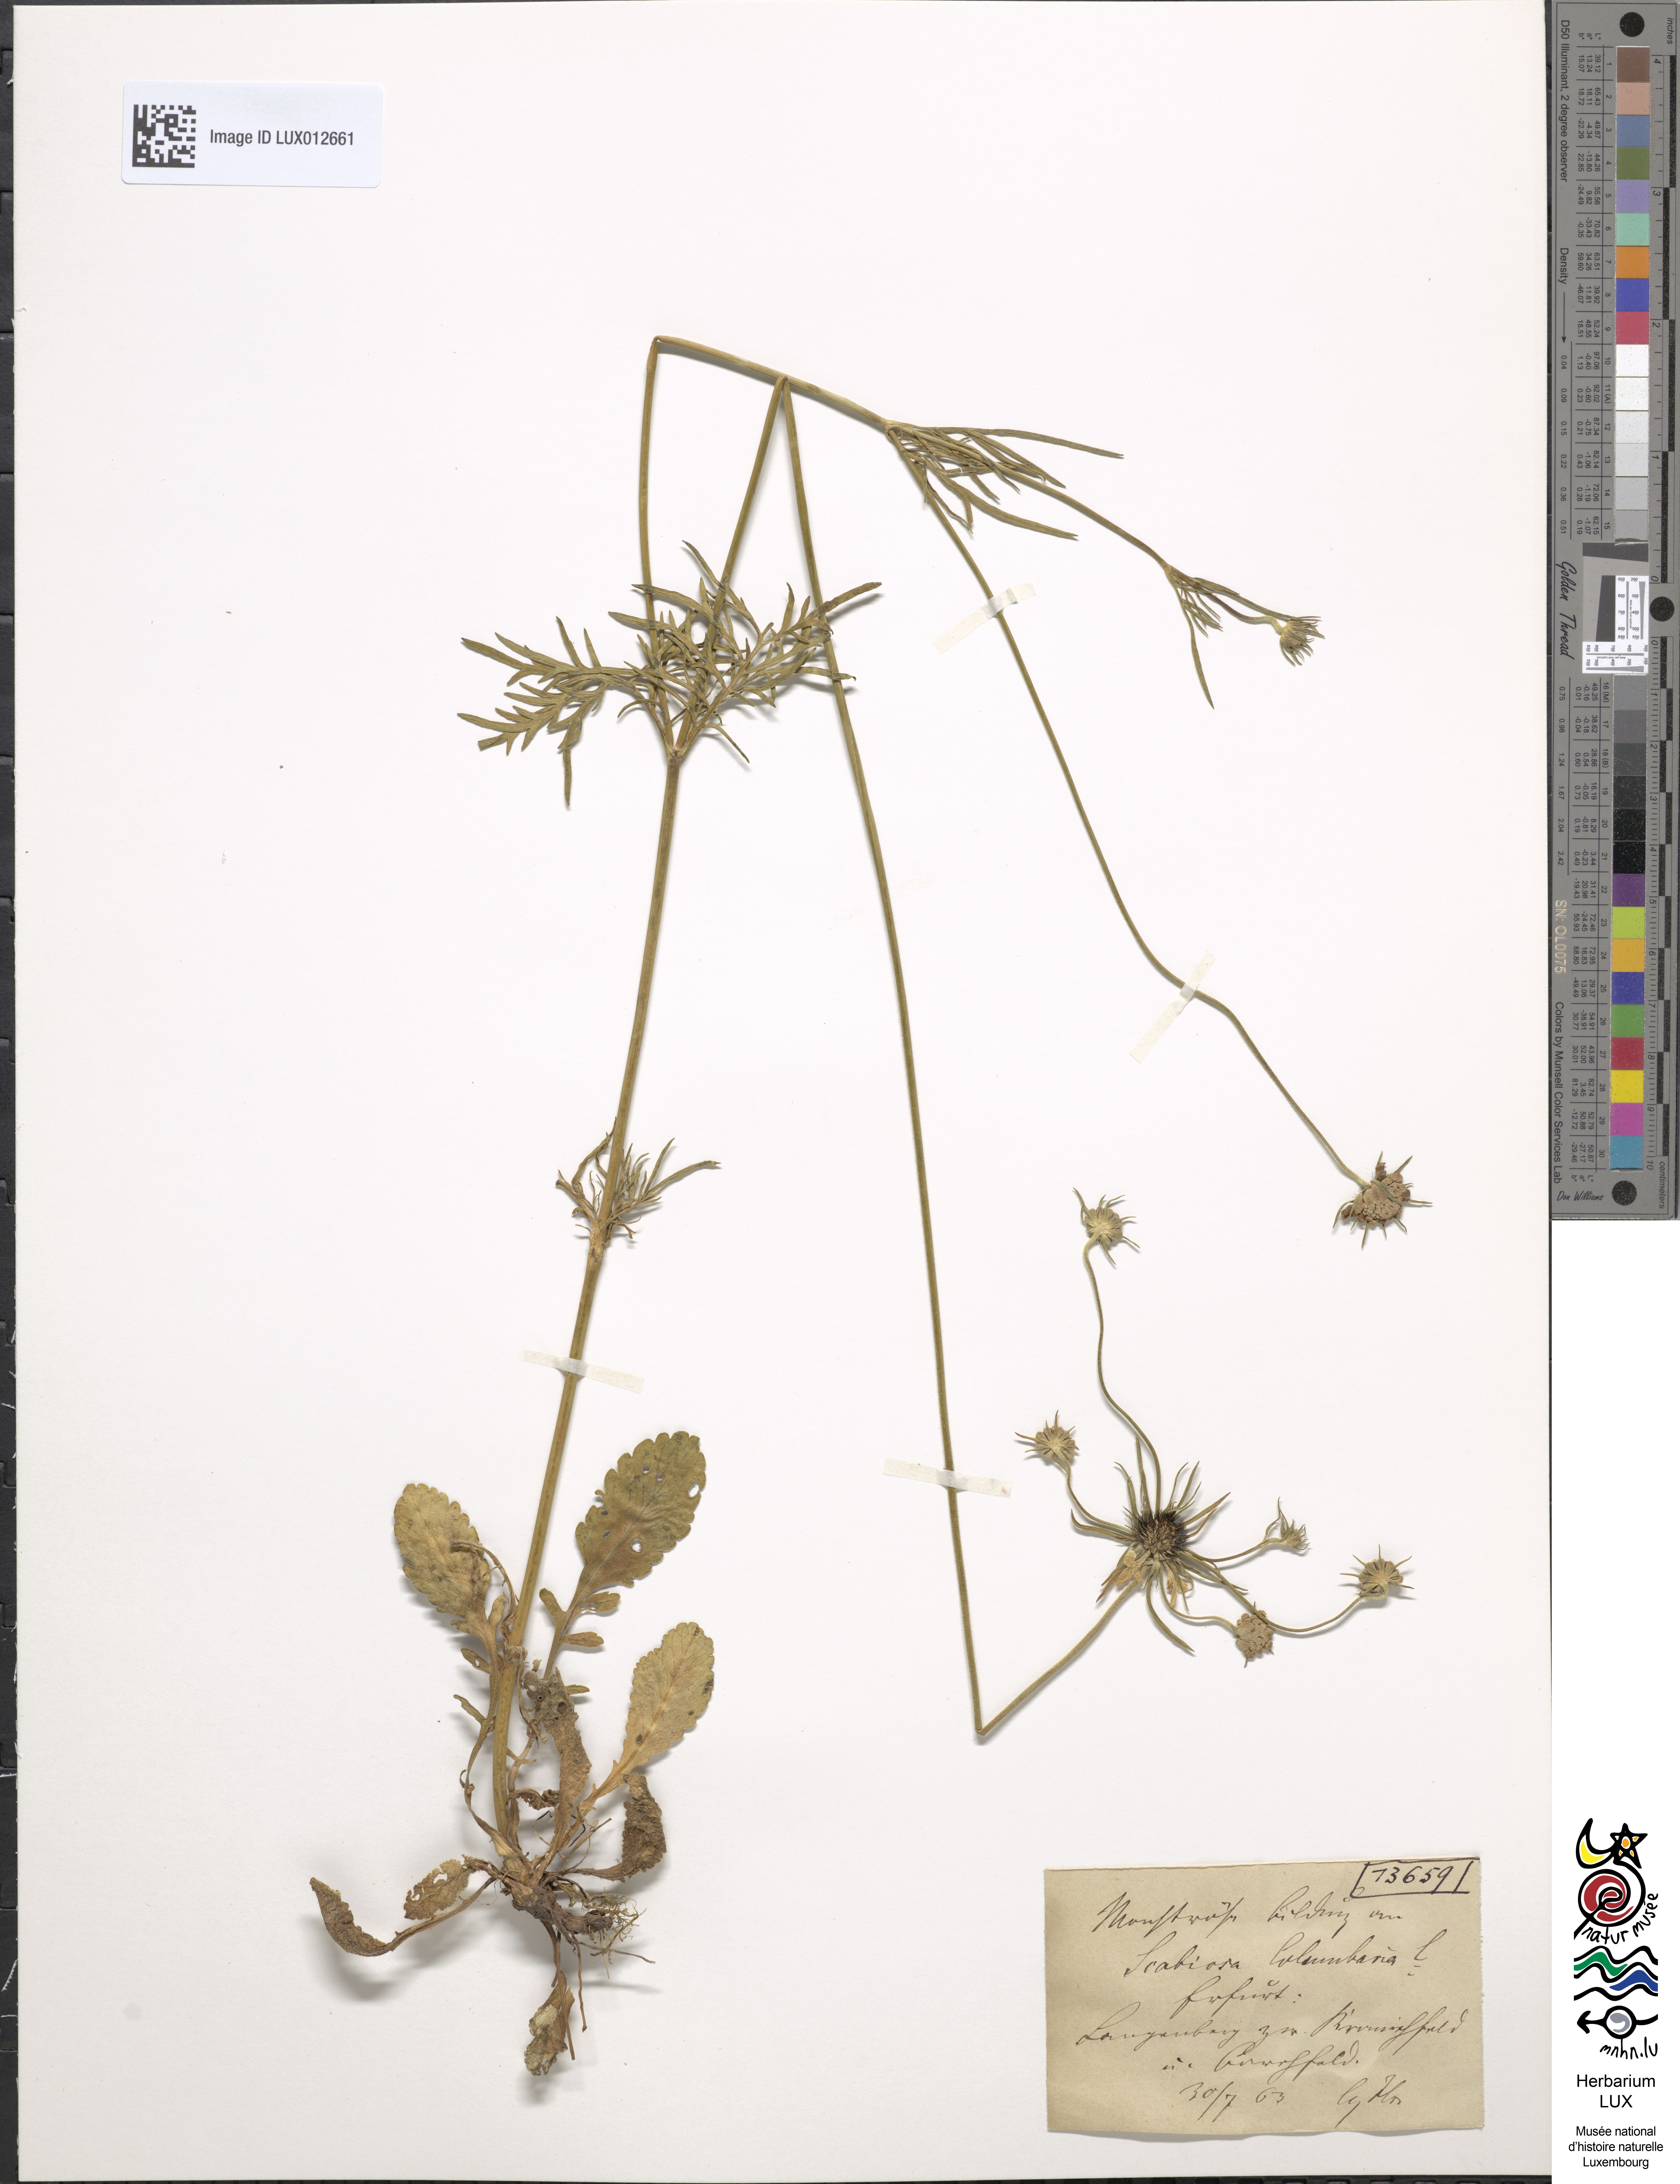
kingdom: Plantae
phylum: Tracheophyta
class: Magnoliopsida
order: Dipsacales
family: Caprifoliaceae
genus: Scabiosa
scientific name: Scabiosa columbaria
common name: Small scabious
